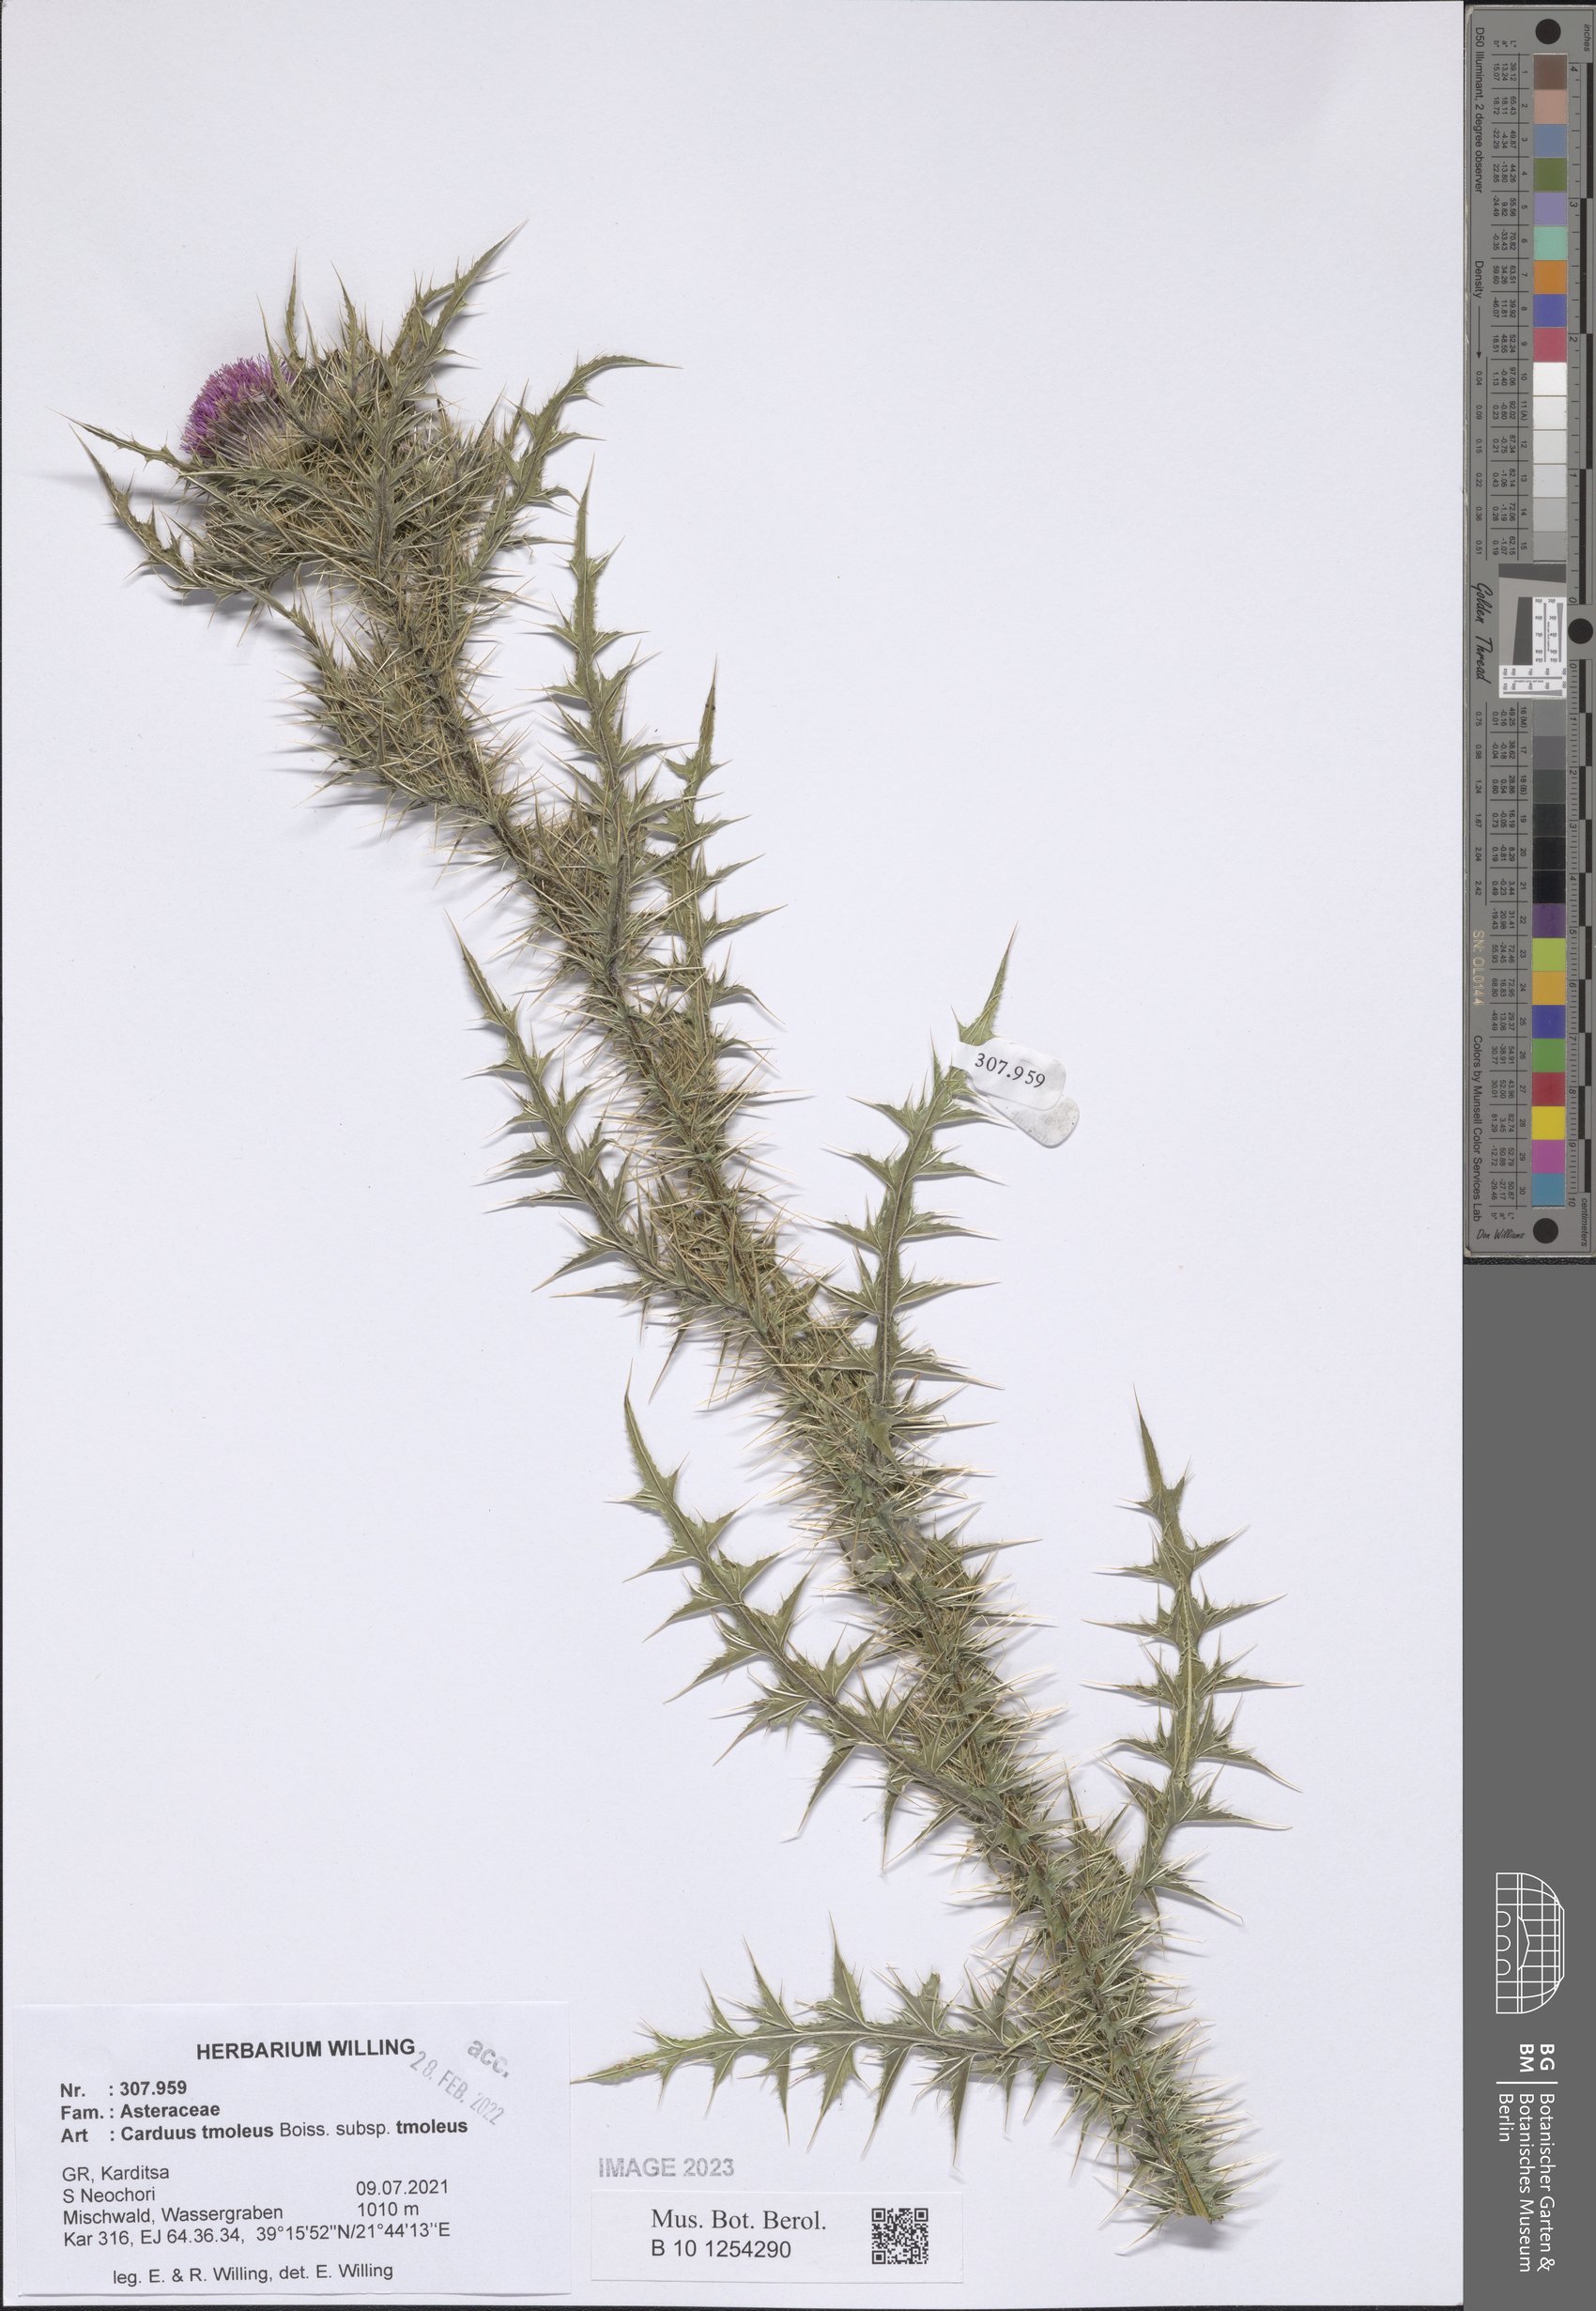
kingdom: Plantae
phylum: Tracheophyta
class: Magnoliopsida
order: Asterales
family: Asteraceae
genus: Carduus
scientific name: Carduus tmoleus
